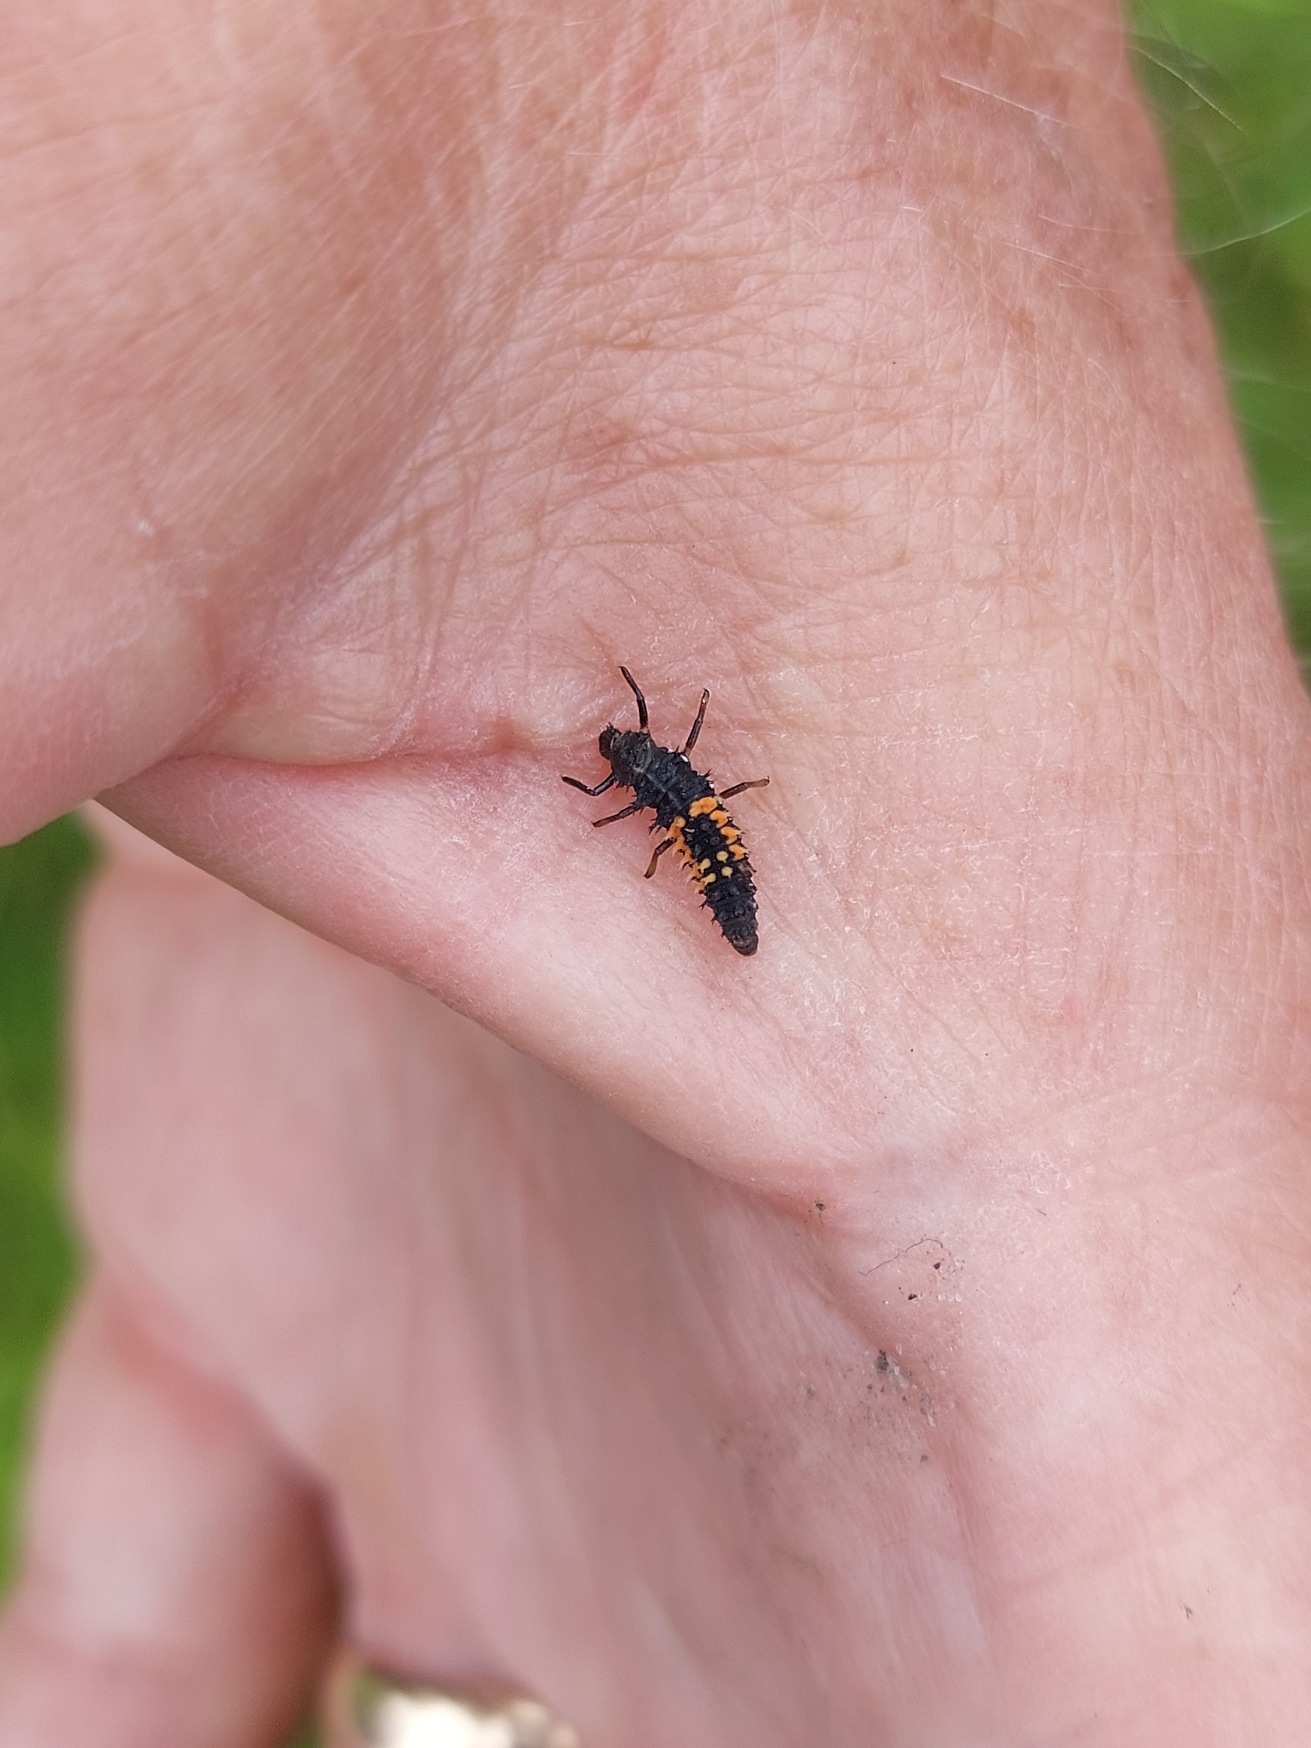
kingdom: Animalia
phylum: Arthropoda
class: Insecta
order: Coleoptera
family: Coccinellidae
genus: Harmonia
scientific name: Harmonia axyridis
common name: Harlekinmariehøne
